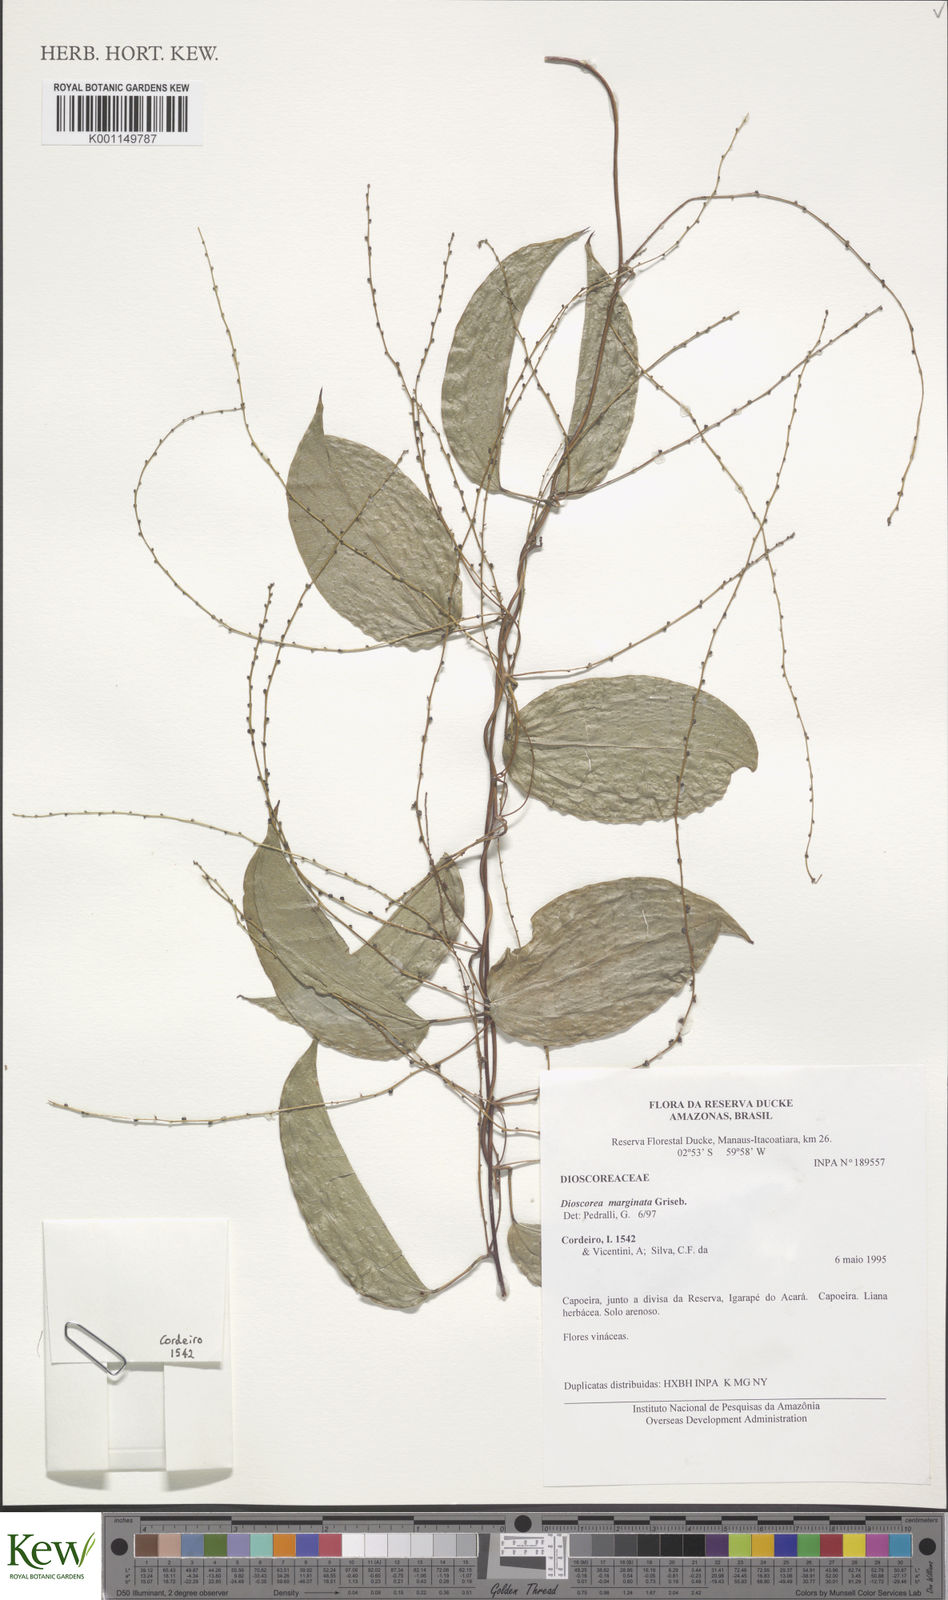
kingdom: Plantae
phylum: Tracheophyta
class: Liliopsida
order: Dioscoreales
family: Dioscoreaceae
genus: Dioscorea
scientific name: Dioscorea
